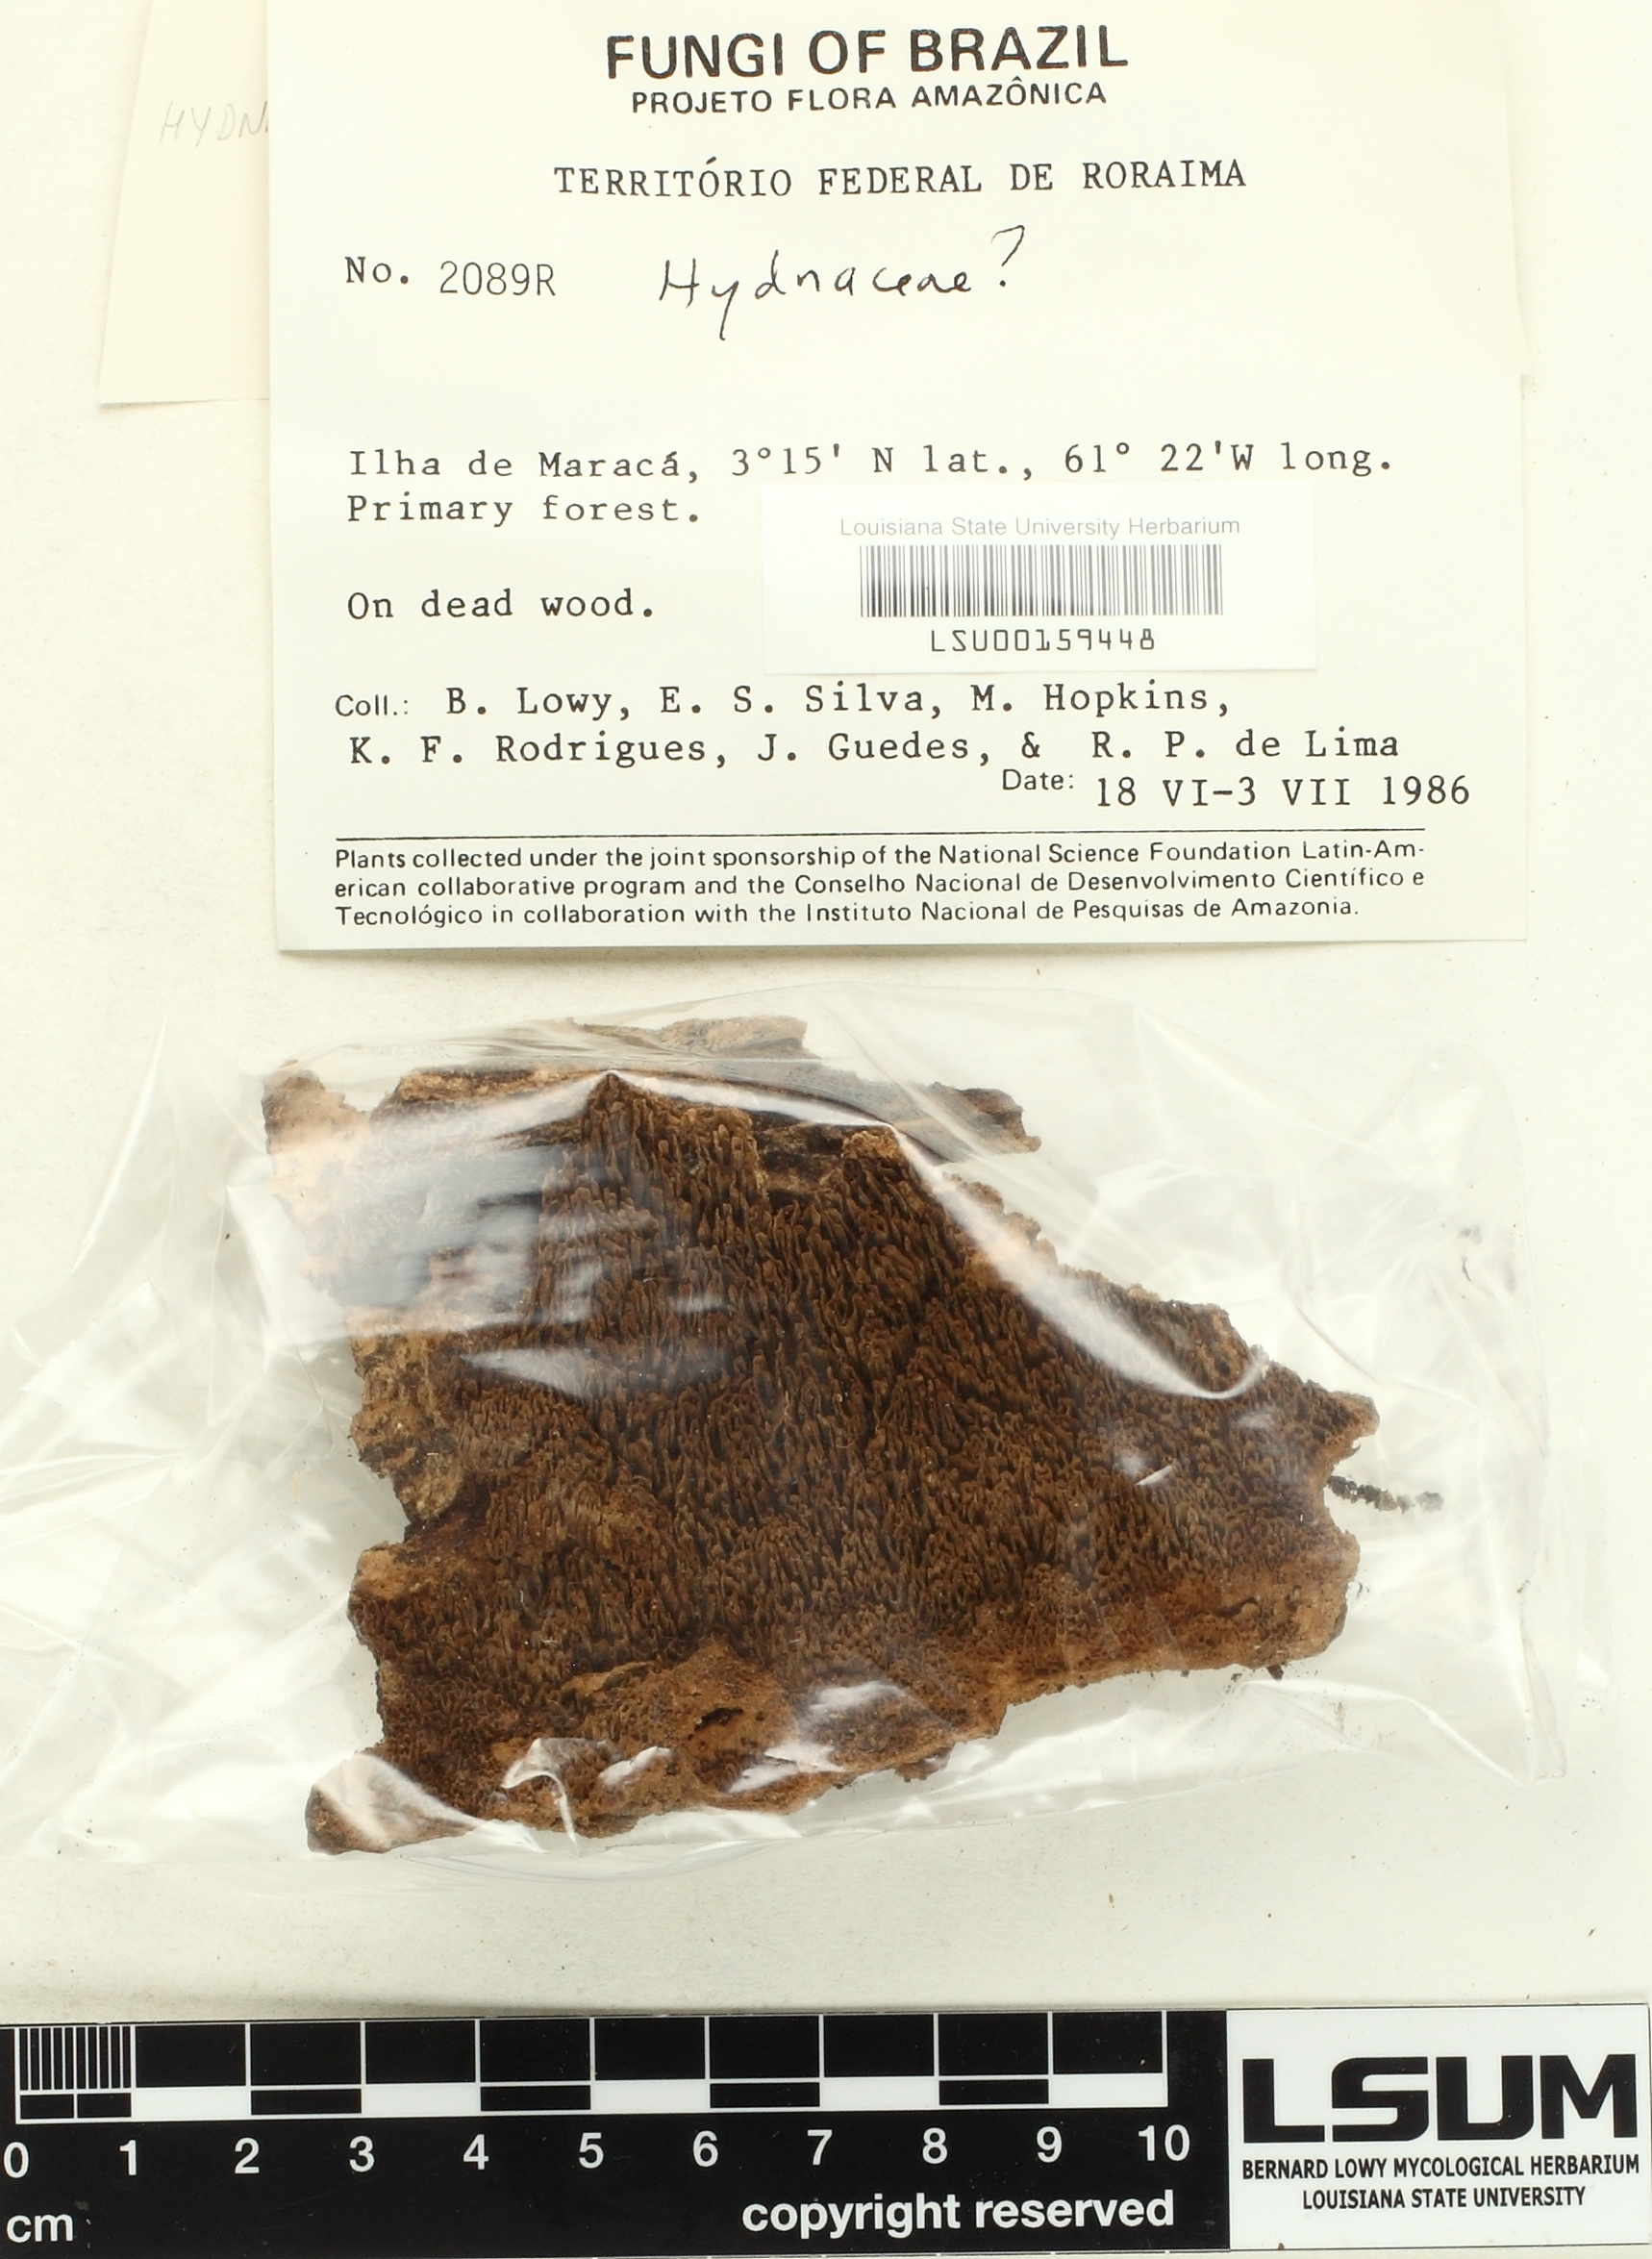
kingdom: Fungi
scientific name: Fungi
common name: Fungi
